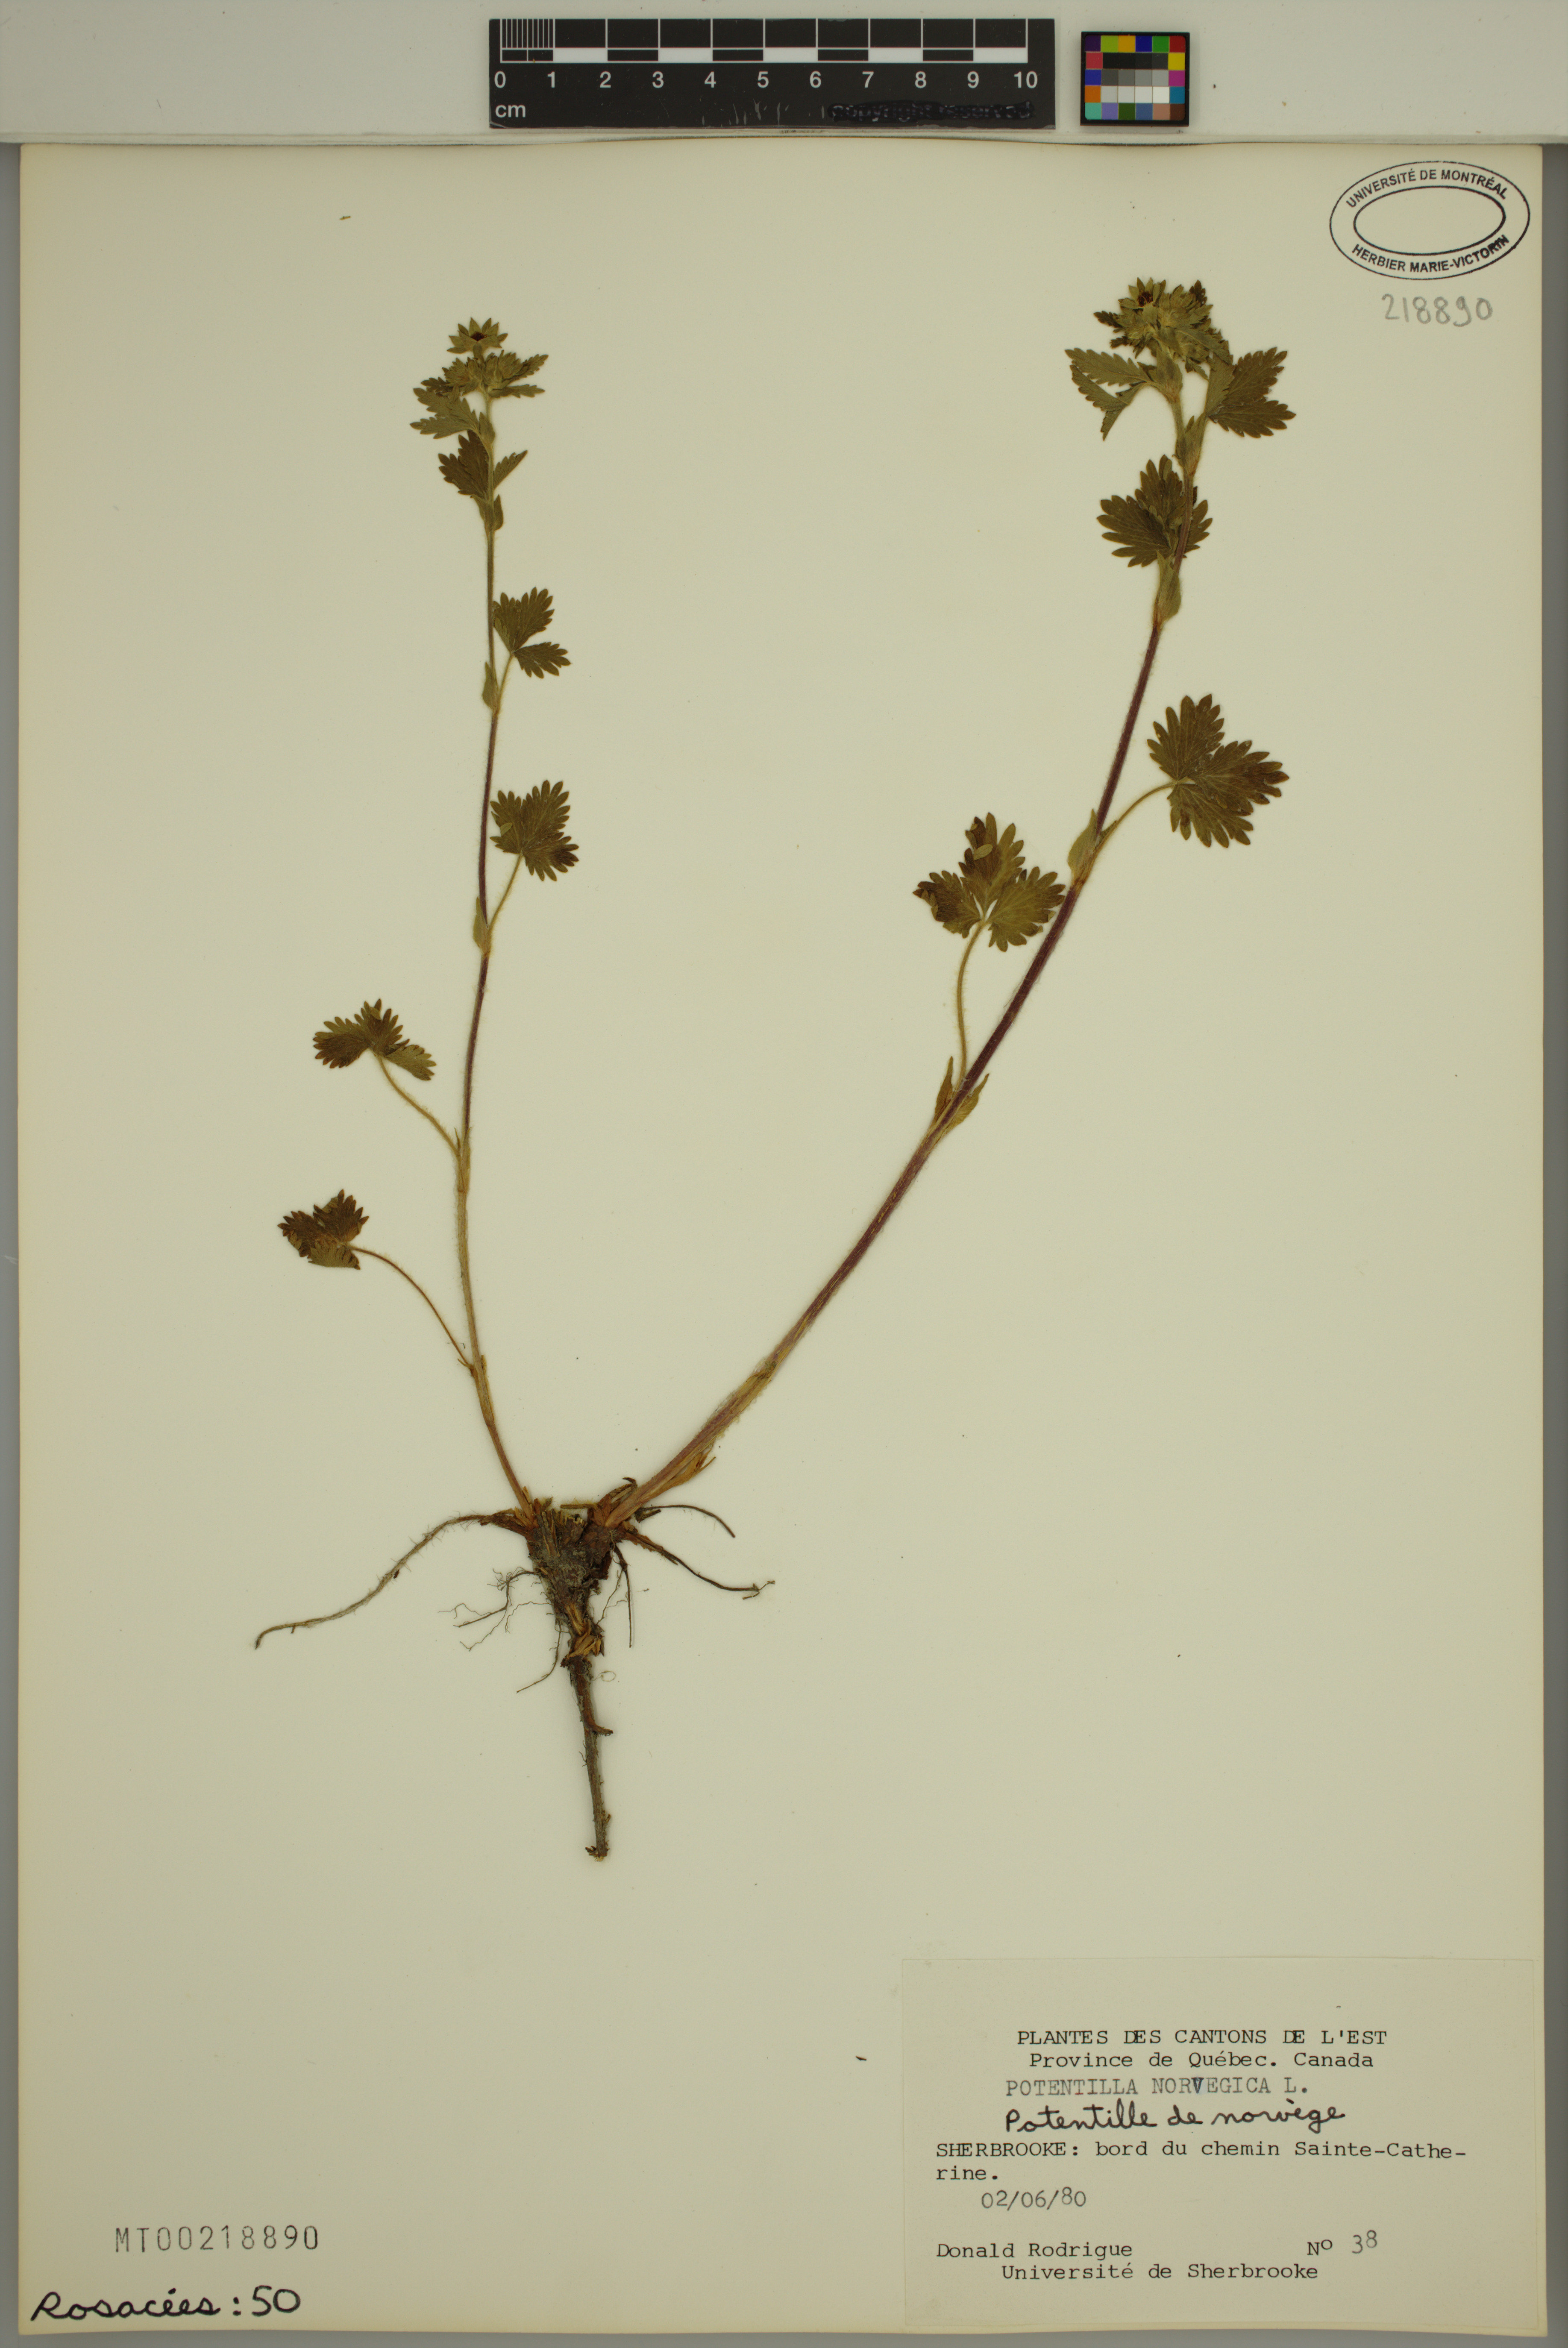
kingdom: Plantae
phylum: Tracheophyta
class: Magnoliopsida
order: Rosales
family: Rosaceae
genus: Potentilla
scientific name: Potentilla norvegica
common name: Ternate-leaved cinquefoil
